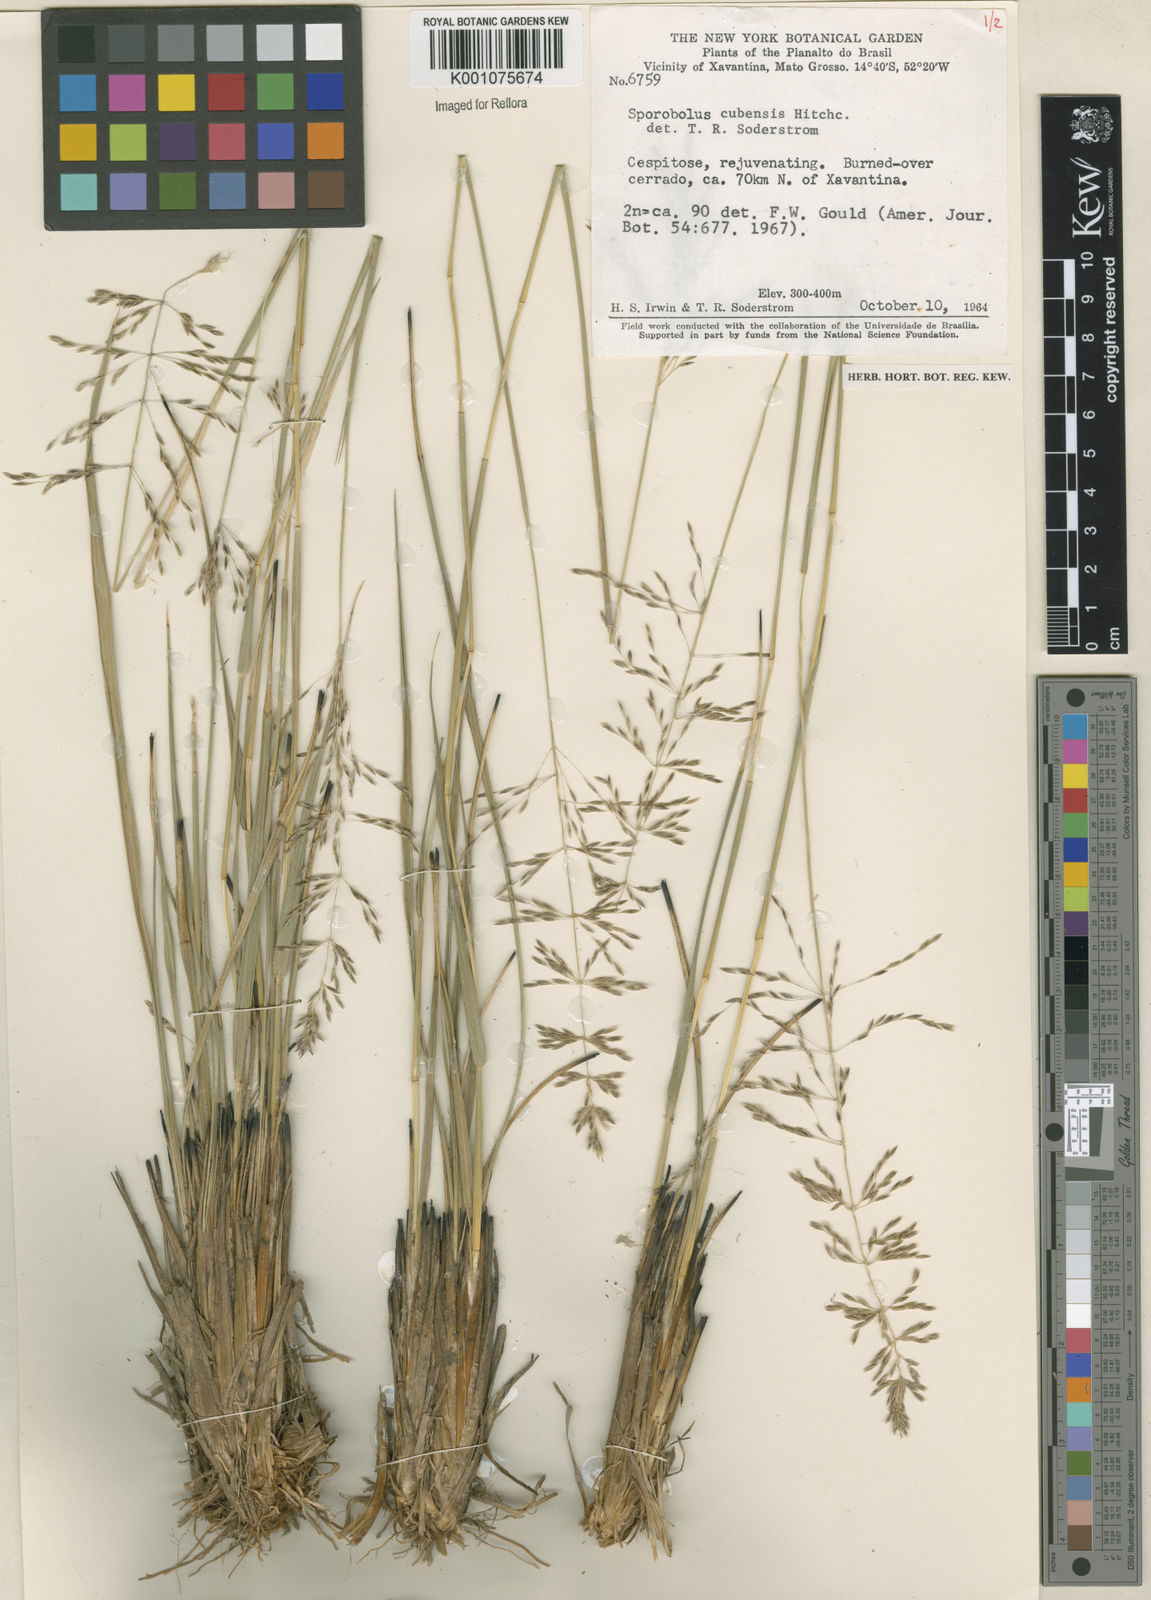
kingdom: Plantae
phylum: Tracheophyta
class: Liliopsida
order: Poales
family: Poaceae
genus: Sporobolus
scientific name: Sporobolus cubensis
